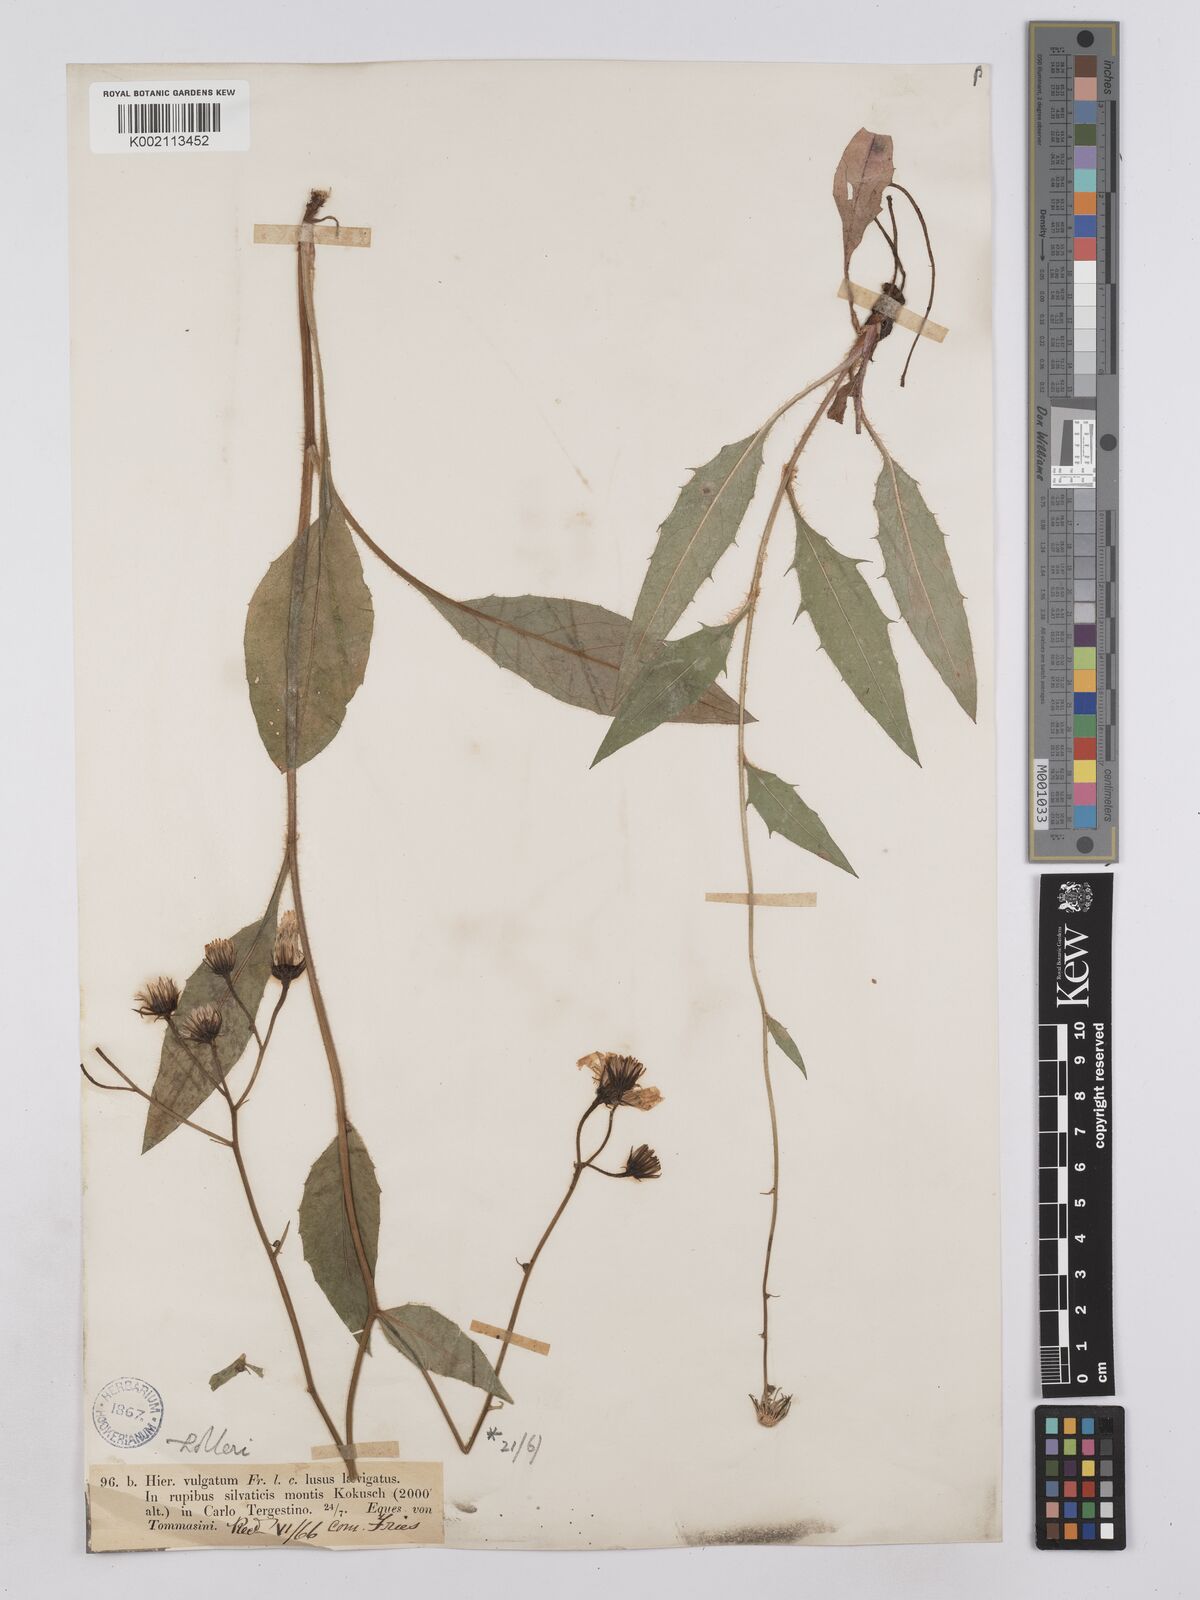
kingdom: Plantae
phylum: Tracheophyta
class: Magnoliopsida
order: Asterales
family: Asteraceae
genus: Hieracium
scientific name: Hieracium calcareum
